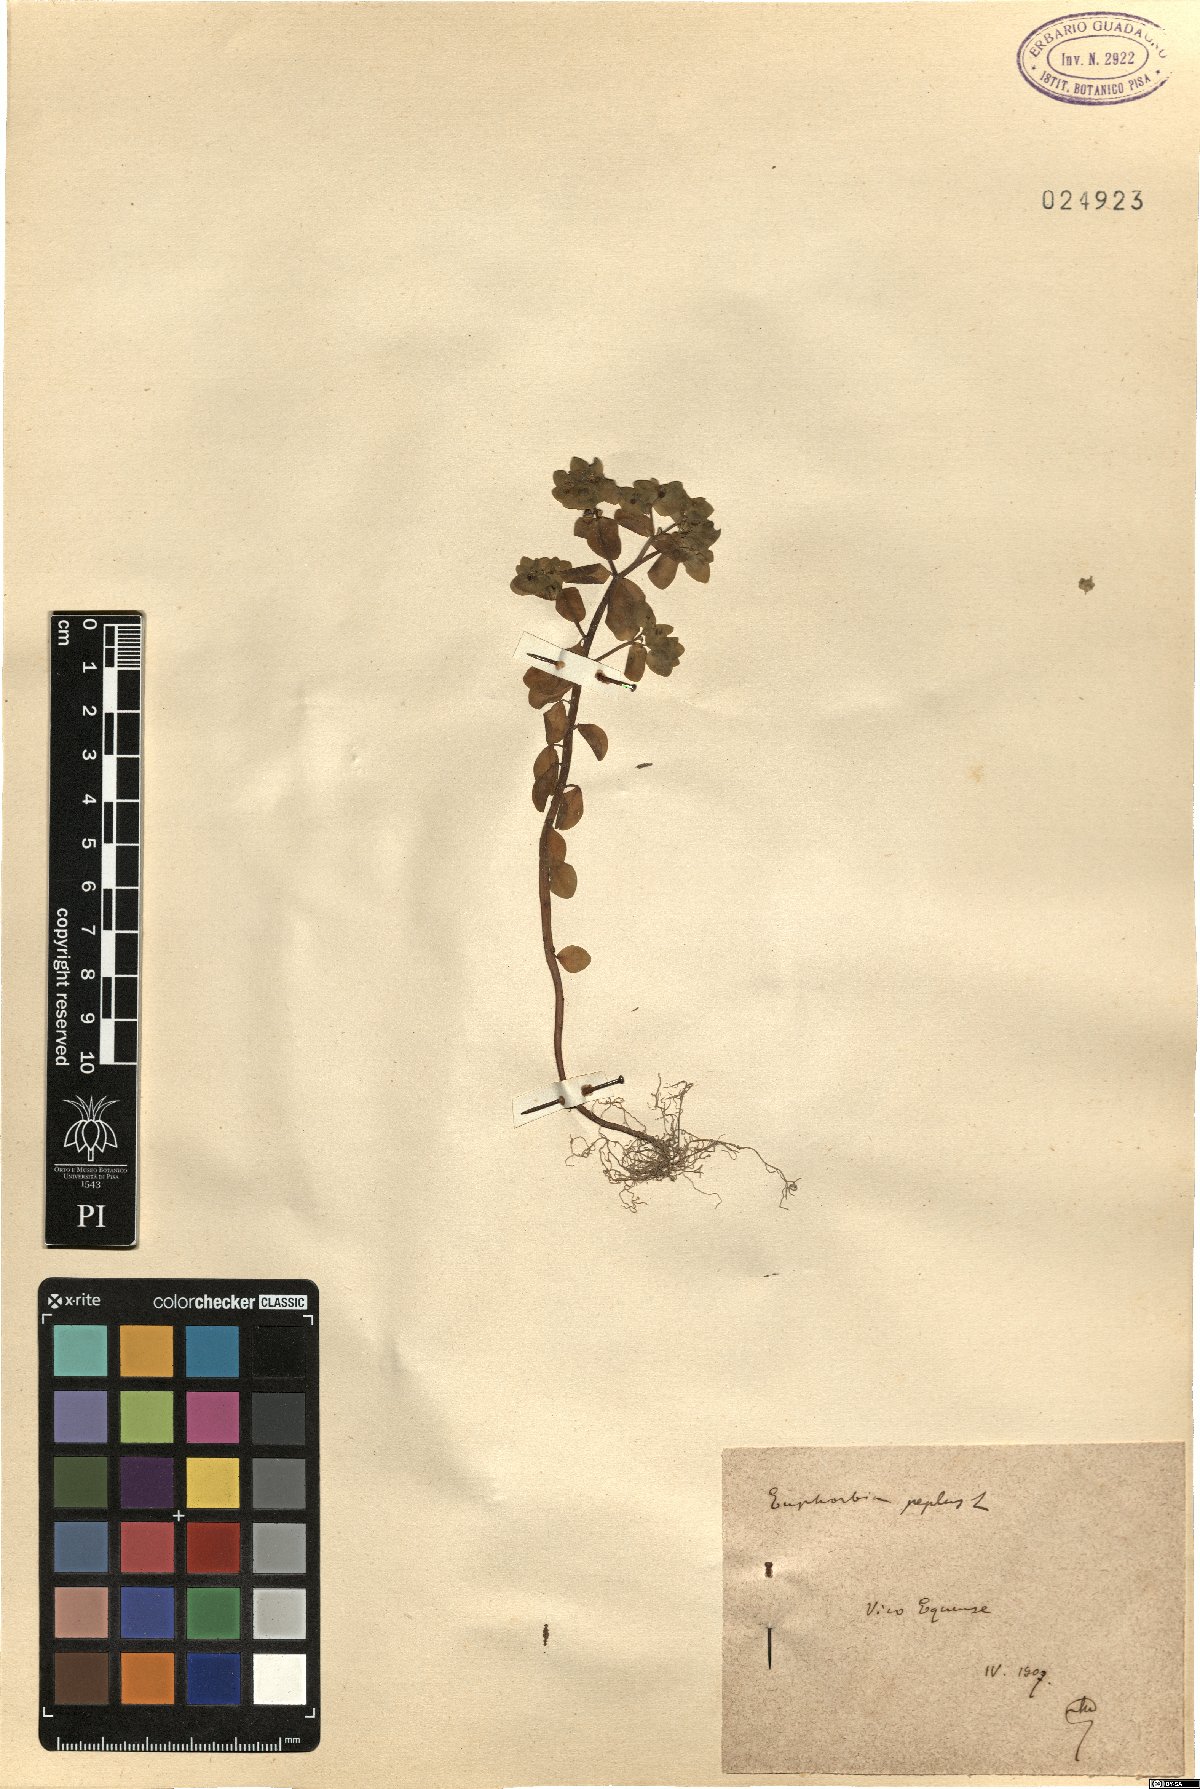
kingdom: Plantae
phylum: Tracheophyta
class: Magnoliopsida
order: Malpighiales
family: Euphorbiaceae
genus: Euphorbia
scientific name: Euphorbia peplus
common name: Petty spurge
